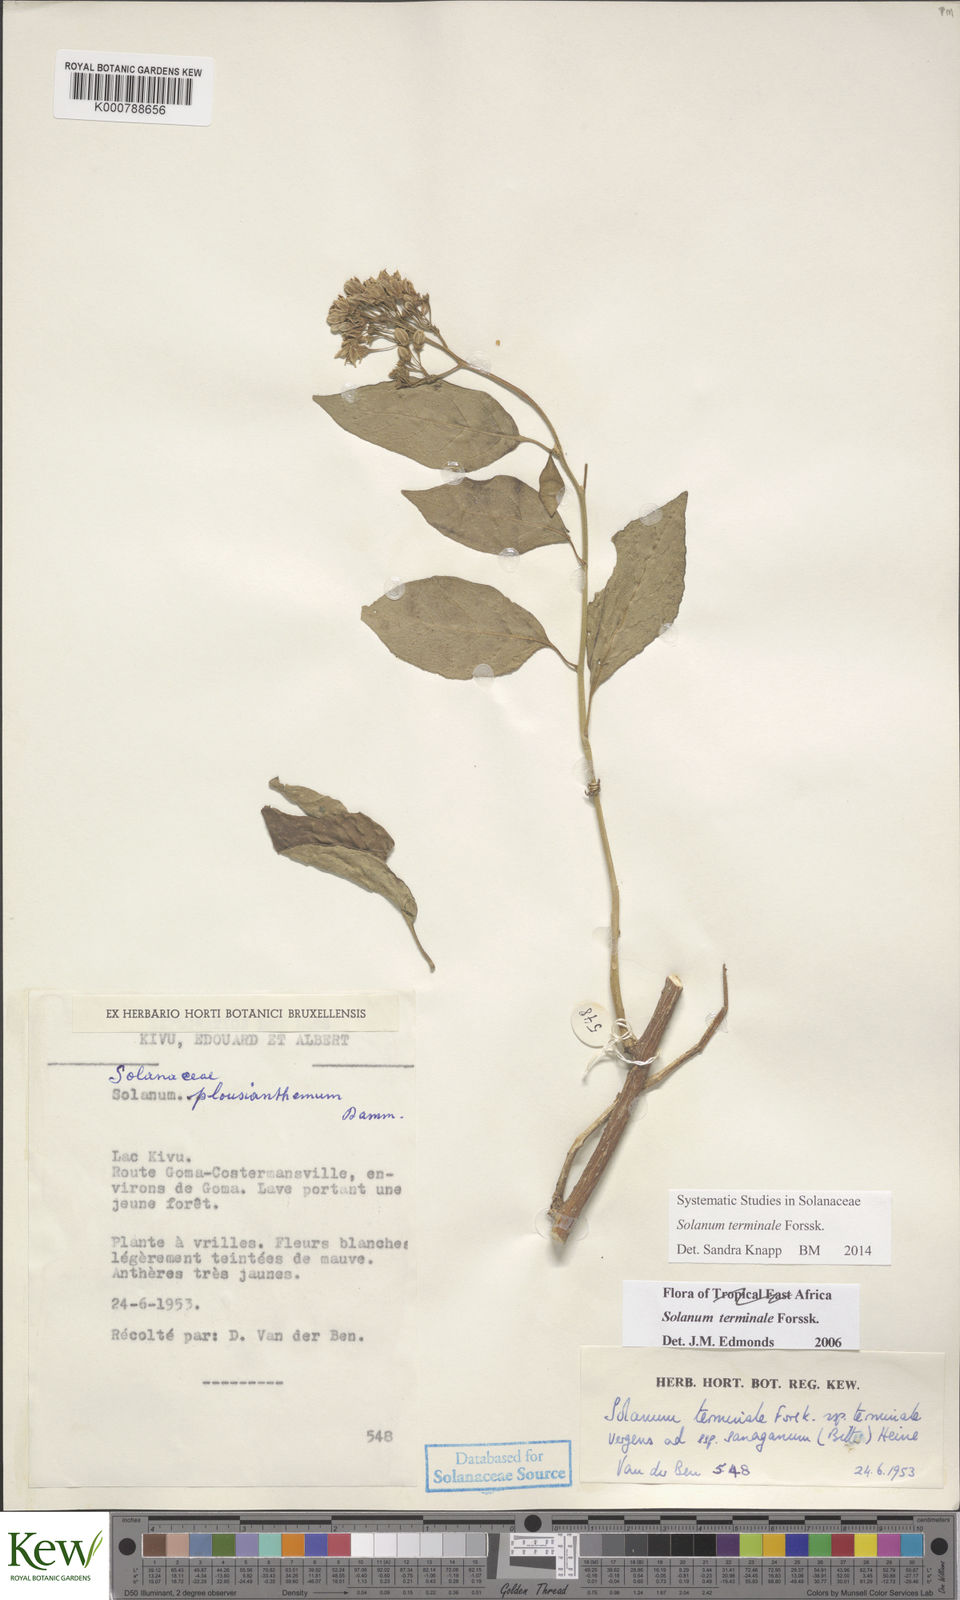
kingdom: Plantae
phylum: Tracheophyta
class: Magnoliopsida
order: Solanales
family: Solanaceae
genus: Solanum
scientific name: Solanum terminale
